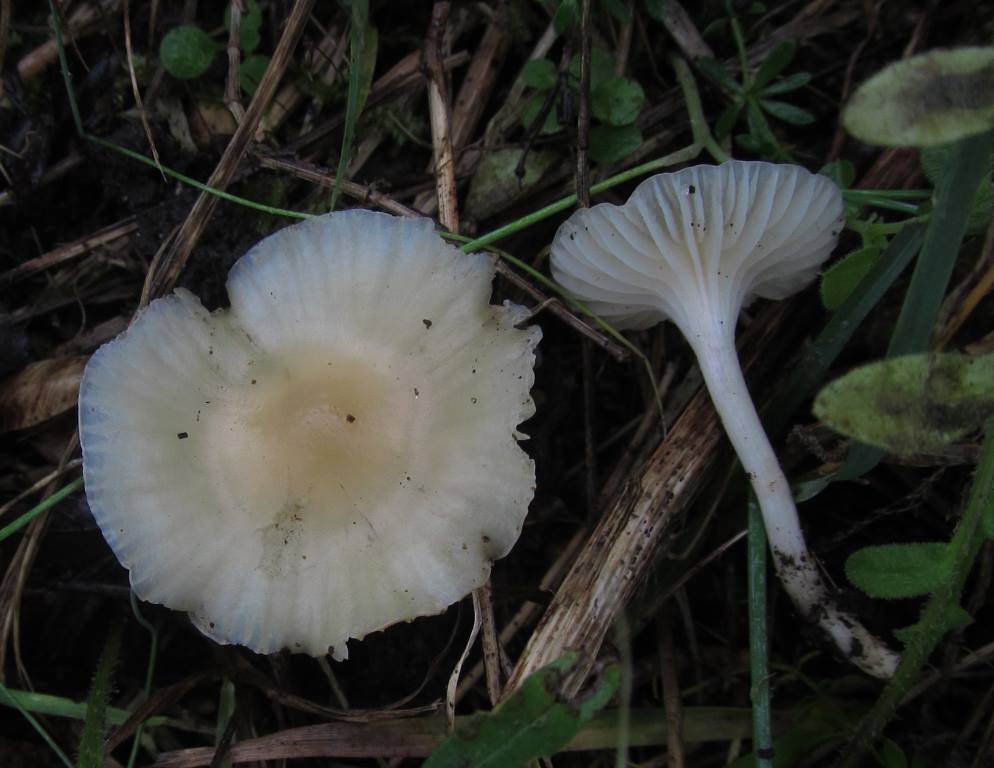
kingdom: Fungi
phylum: Basidiomycota
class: Agaricomycetes
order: Agaricales
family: Hygrophoraceae
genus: Cuphophyllus
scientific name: Cuphophyllus virgineus
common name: brunøjet vokshat
